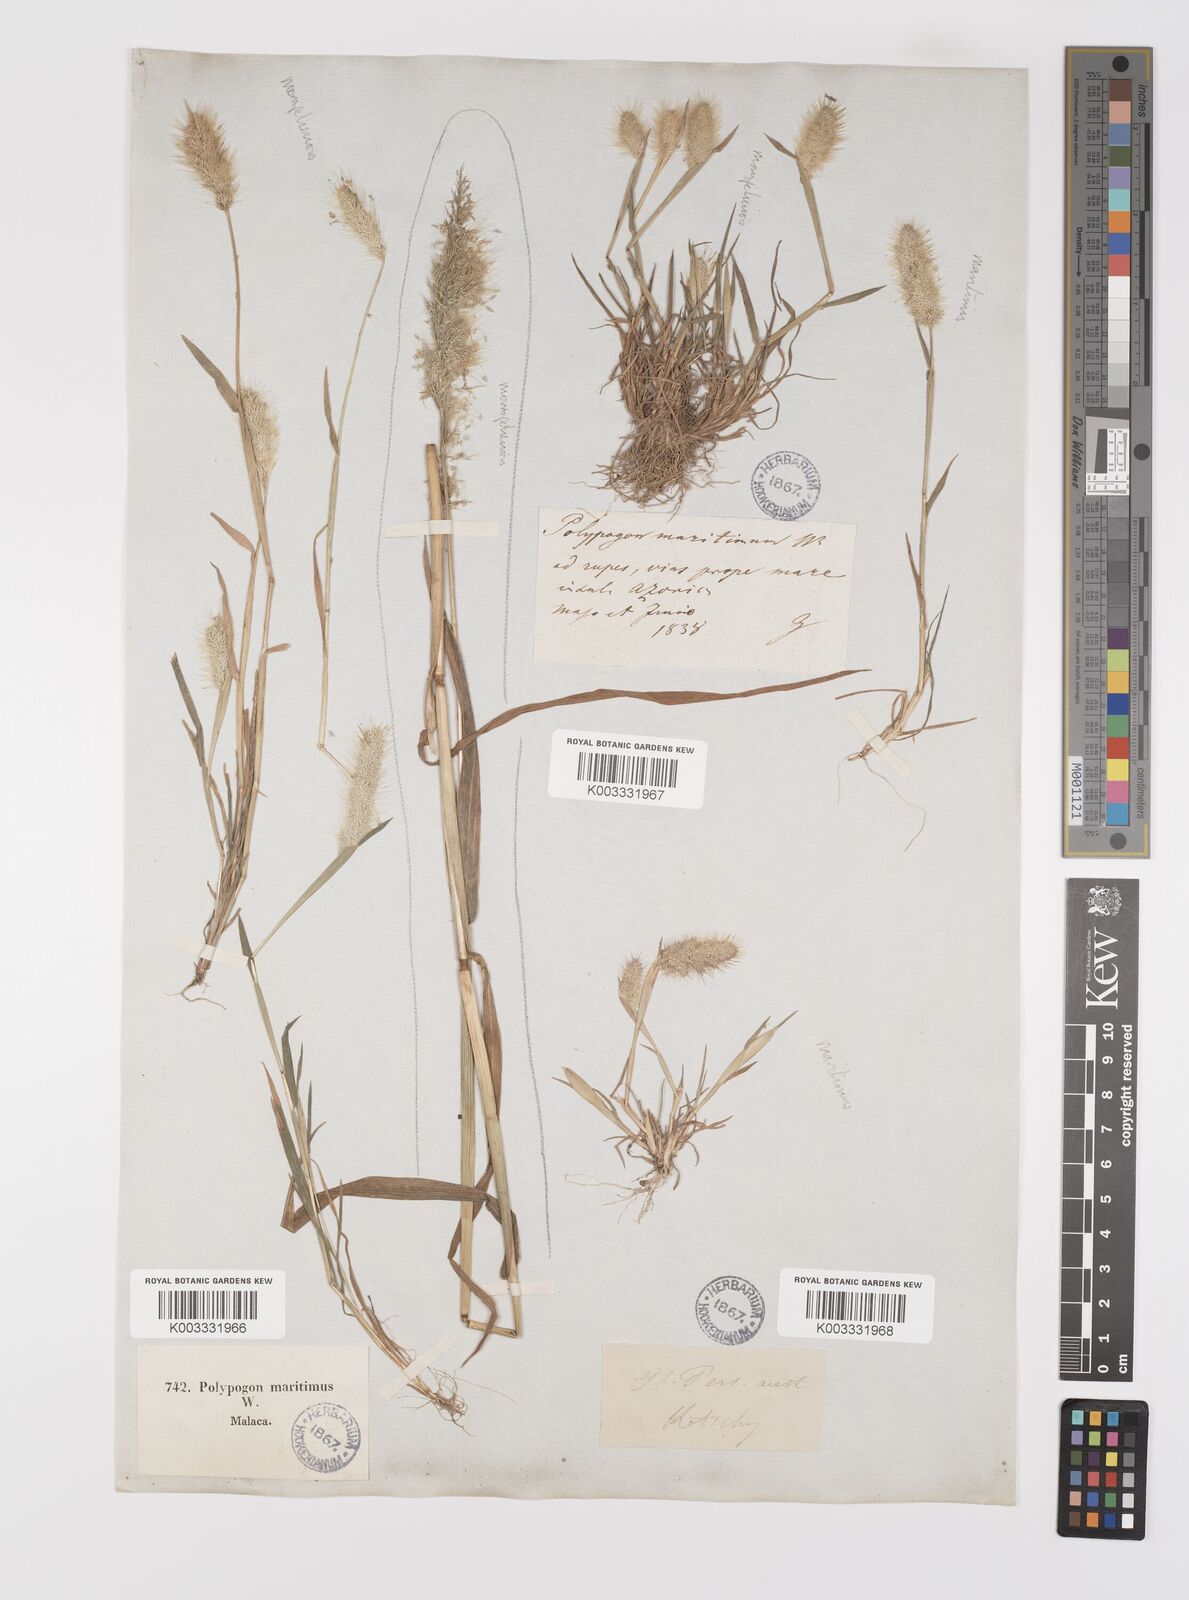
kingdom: Plantae
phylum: Tracheophyta
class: Liliopsida
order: Poales
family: Poaceae
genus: Polypogon
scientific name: Polypogon maritimus
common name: Mediterranean rabbitsfoot grass
